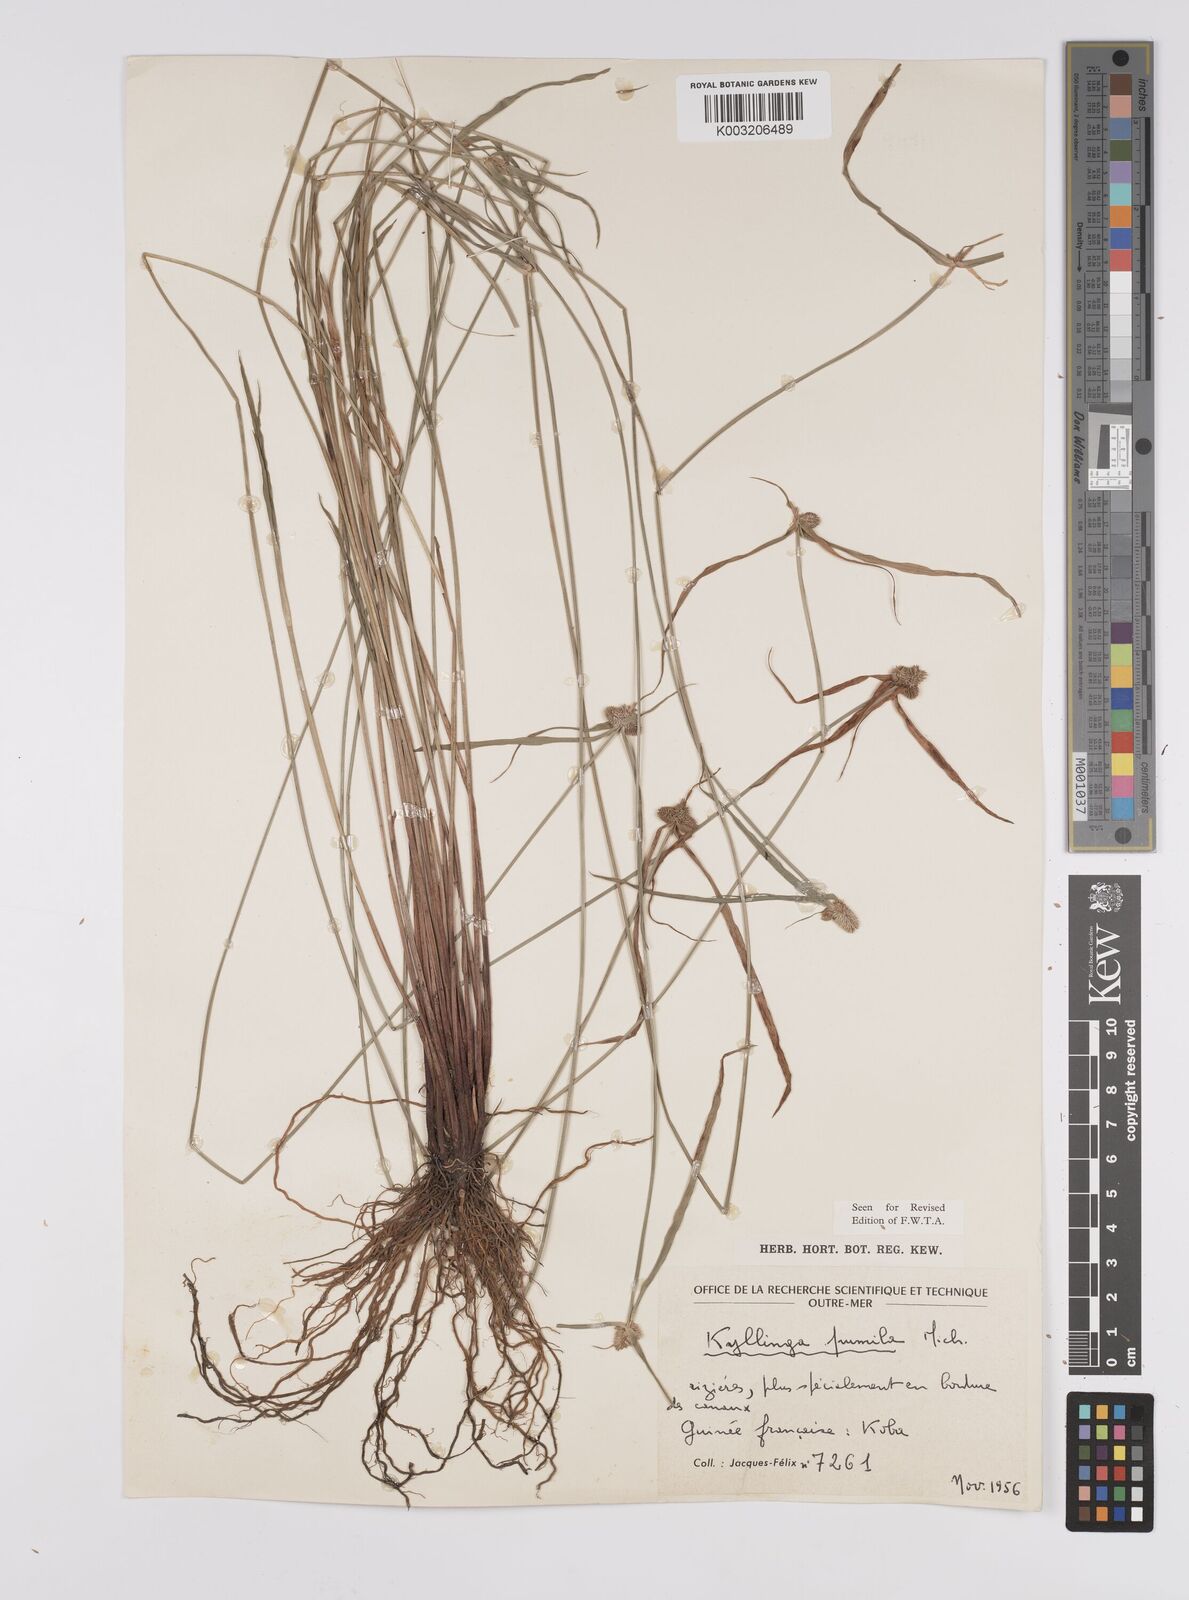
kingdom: Plantae
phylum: Tracheophyta
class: Liliopsida
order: Poales
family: Cyperaceae
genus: Cyperus
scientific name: Cyperus
